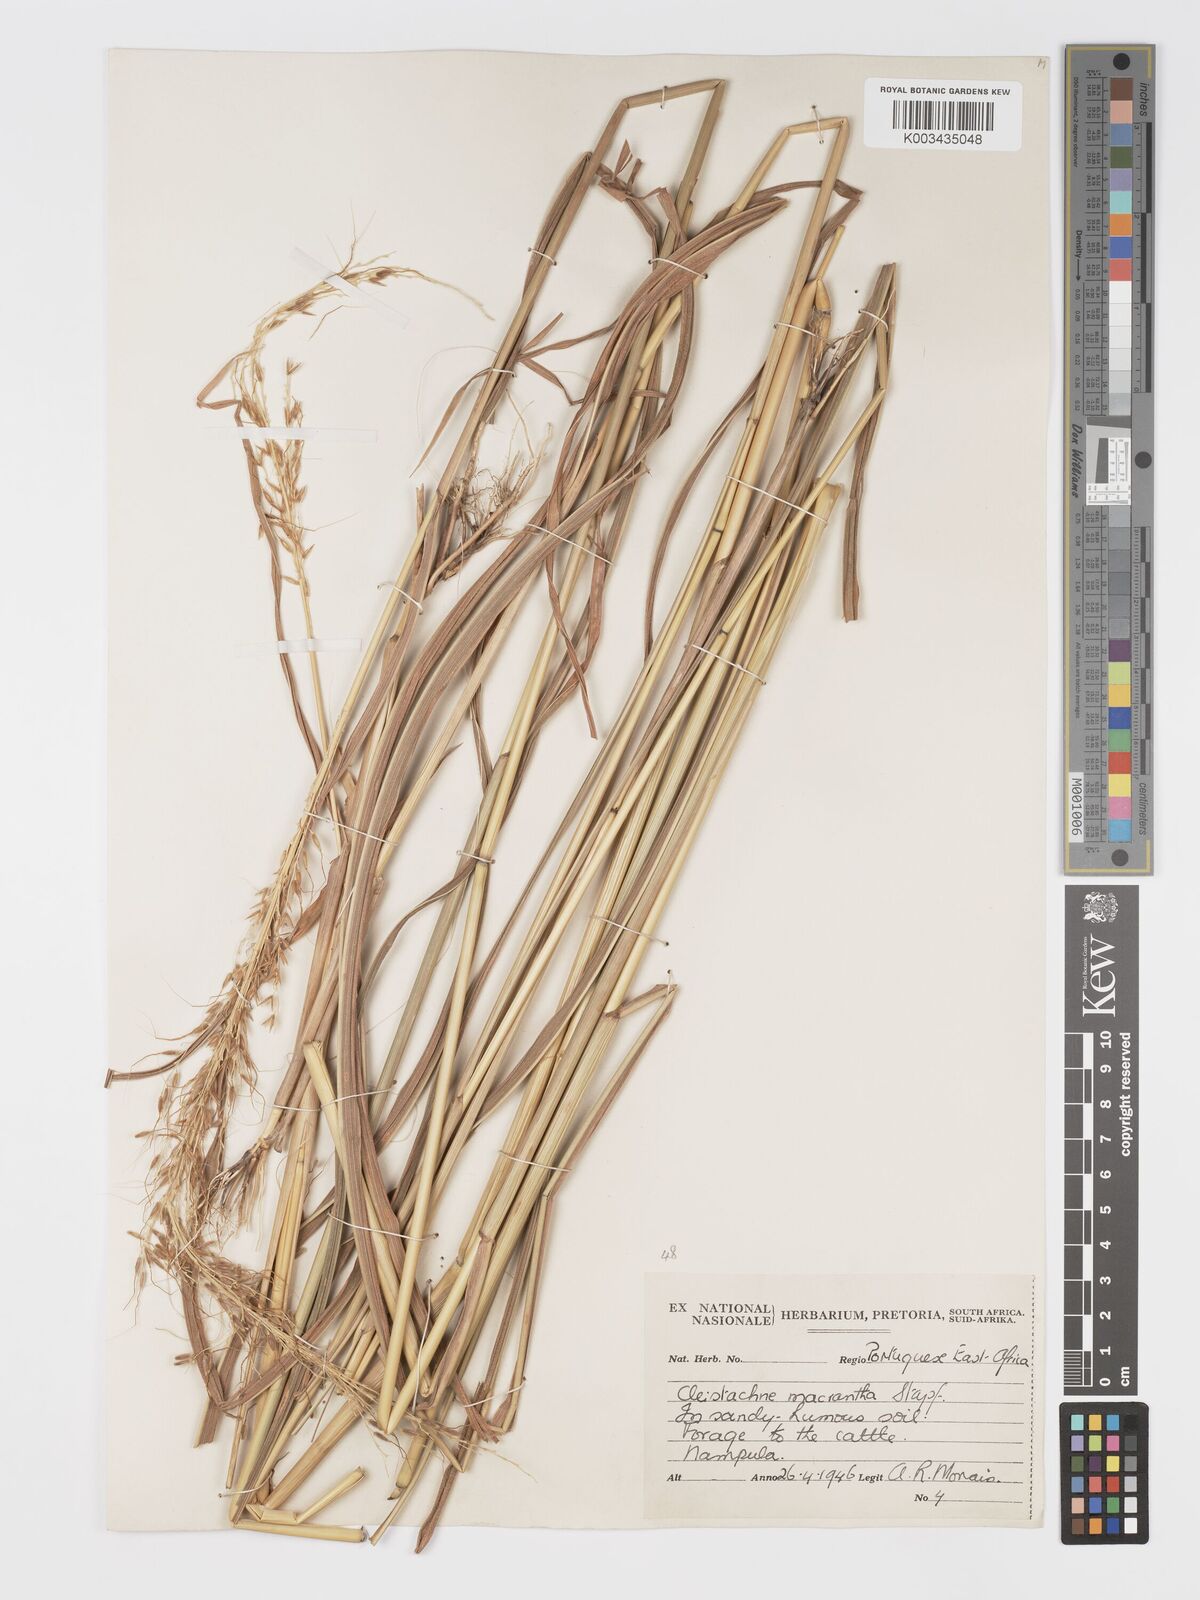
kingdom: Plantae
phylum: Tracheophyta
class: Liliopsida
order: Poales
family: Poaceae
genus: Cleistachne
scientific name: Cleistachne sorghoides
